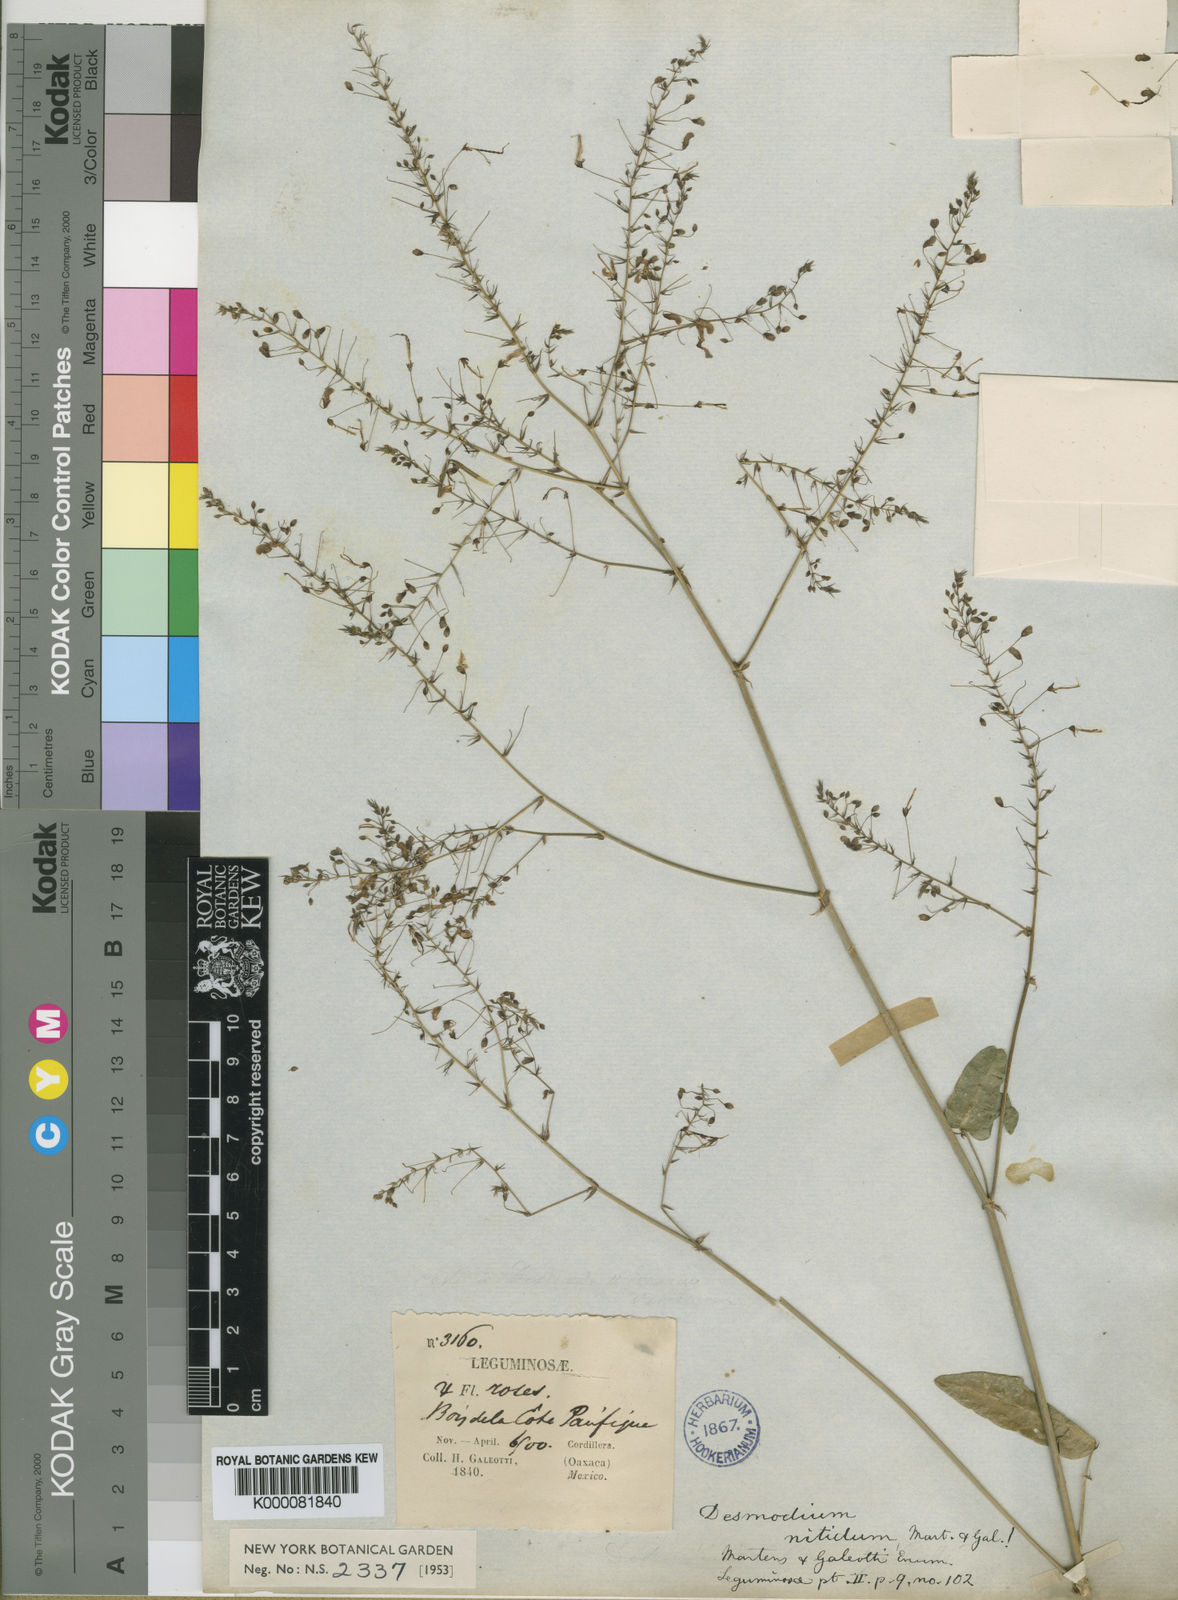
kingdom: Plantae
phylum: Tracheophyta
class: Magnoliopsida
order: Fabales
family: Fabaceae
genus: Desmodium
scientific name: Desmodium nitidum
